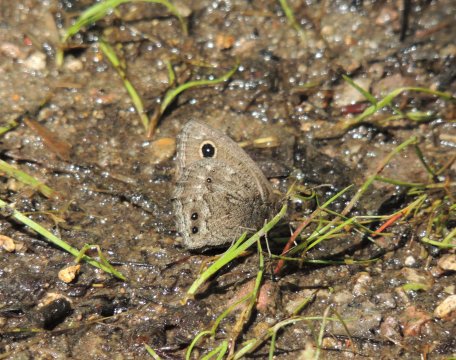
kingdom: Animalia
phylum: Arthropoda
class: Insecta
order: Lepidoptera
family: Nymphalidae
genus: Cercyonis
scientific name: Cercyonis oetus
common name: Small Wood-Nymph
